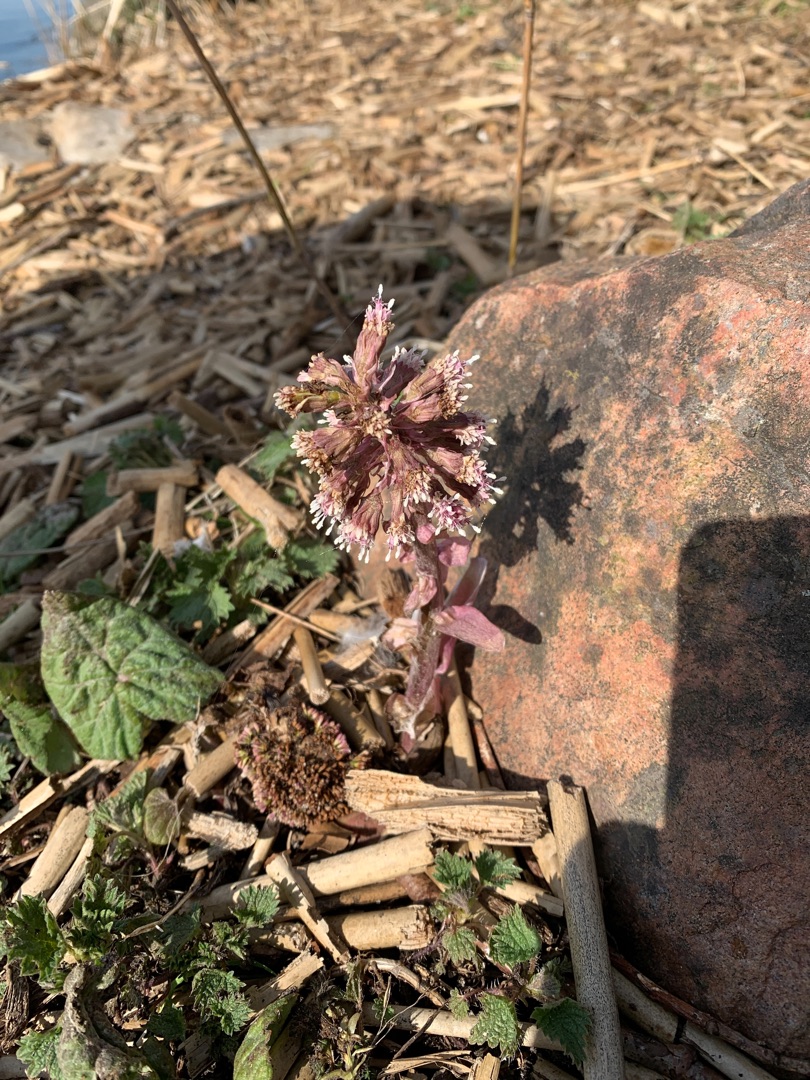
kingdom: Plantae
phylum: Tracheophyta
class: Magnoliopsida
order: Asterales
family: Asteraceae
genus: Petasites
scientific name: Petasites hybridus
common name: Rød hestehov
